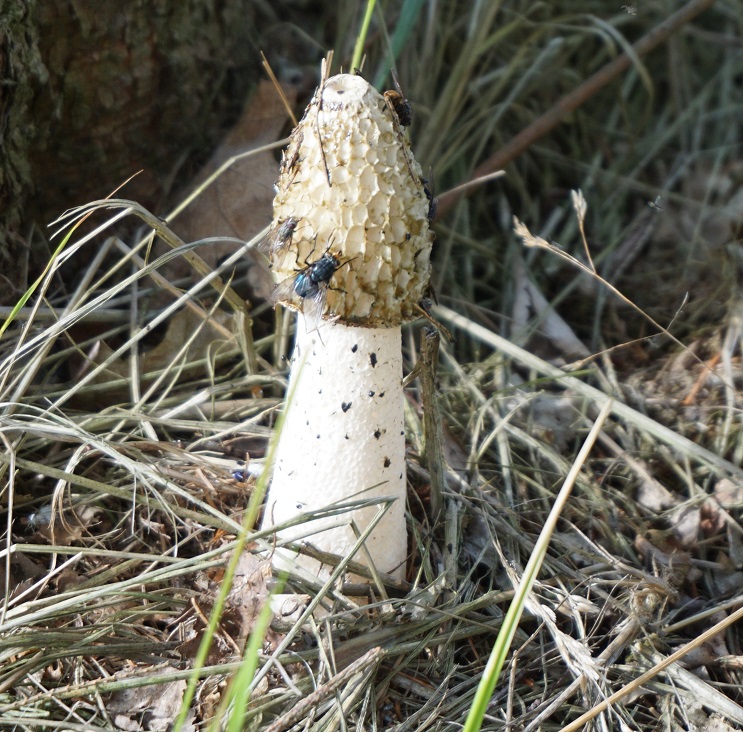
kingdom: Fungi
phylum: Basidiomycota
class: Agaricomycetes
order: Phallales
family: Phallaceae
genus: Phallus
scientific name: Phallus impudicus
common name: almindelig stinksvamp
